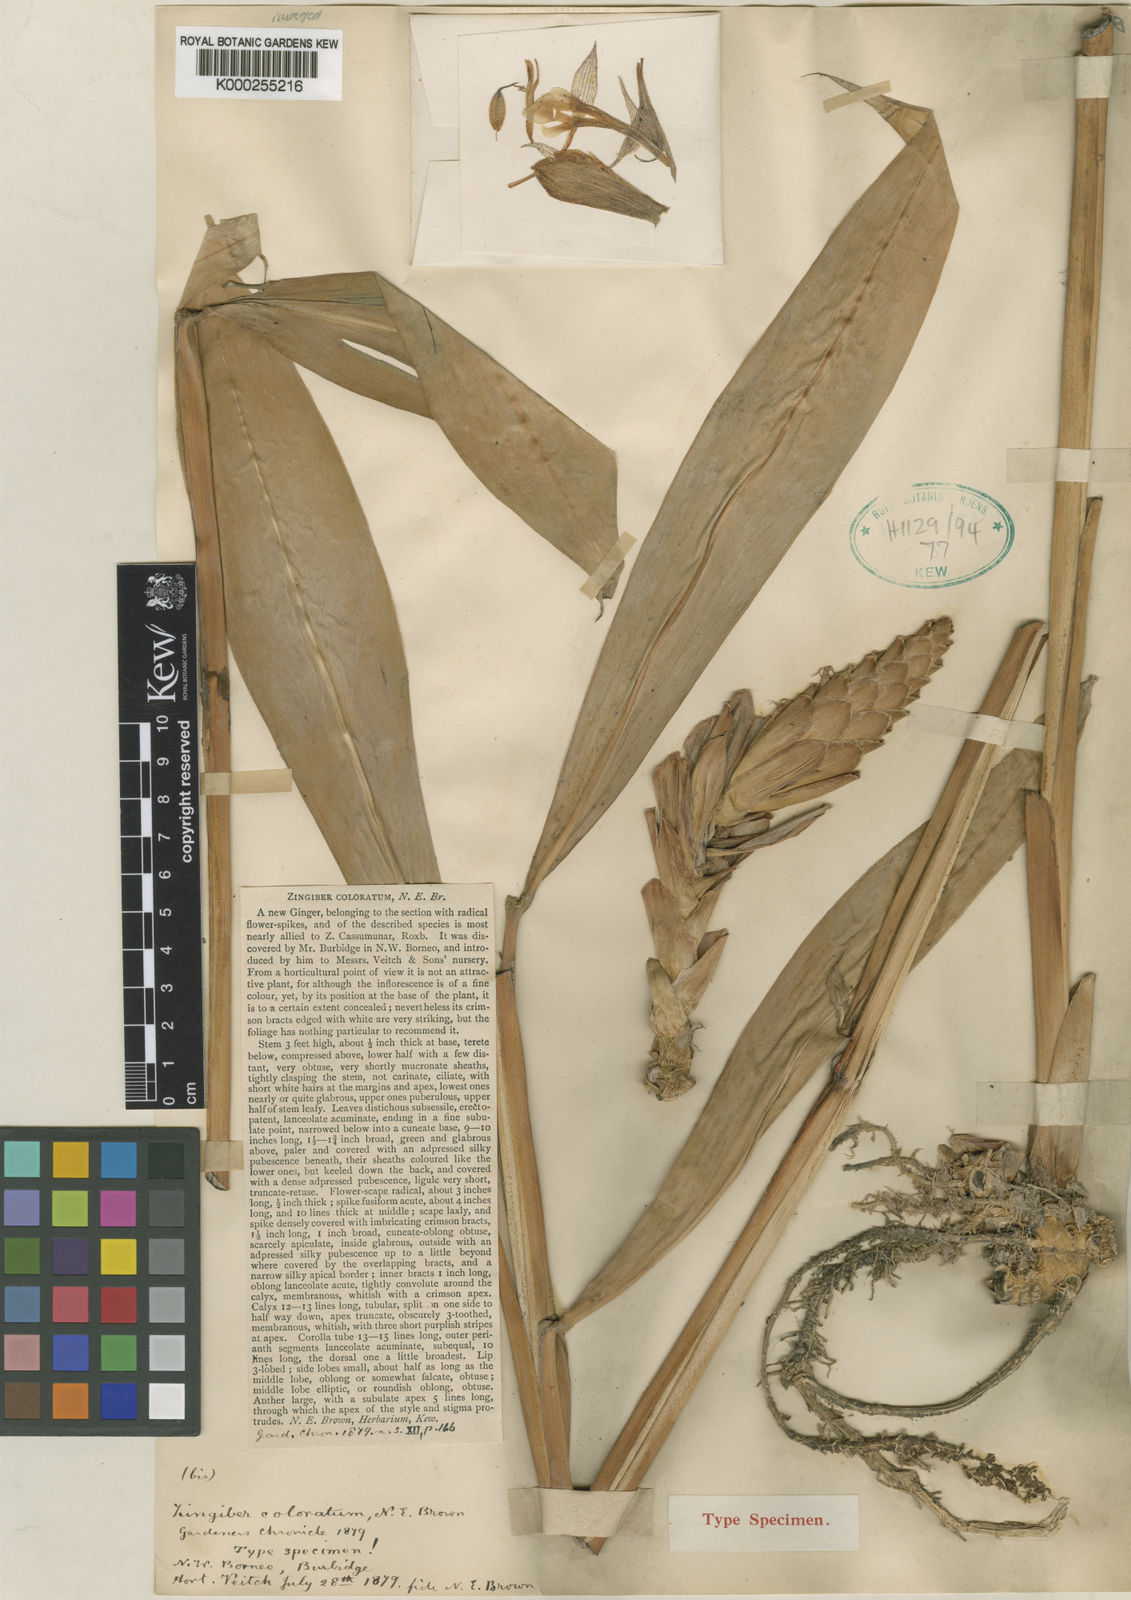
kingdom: Plantae
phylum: Tracheophyta
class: Liliopsida
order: Zingiberales
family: Zingiberaceae
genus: Zingiber
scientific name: Zingiber coloratum
